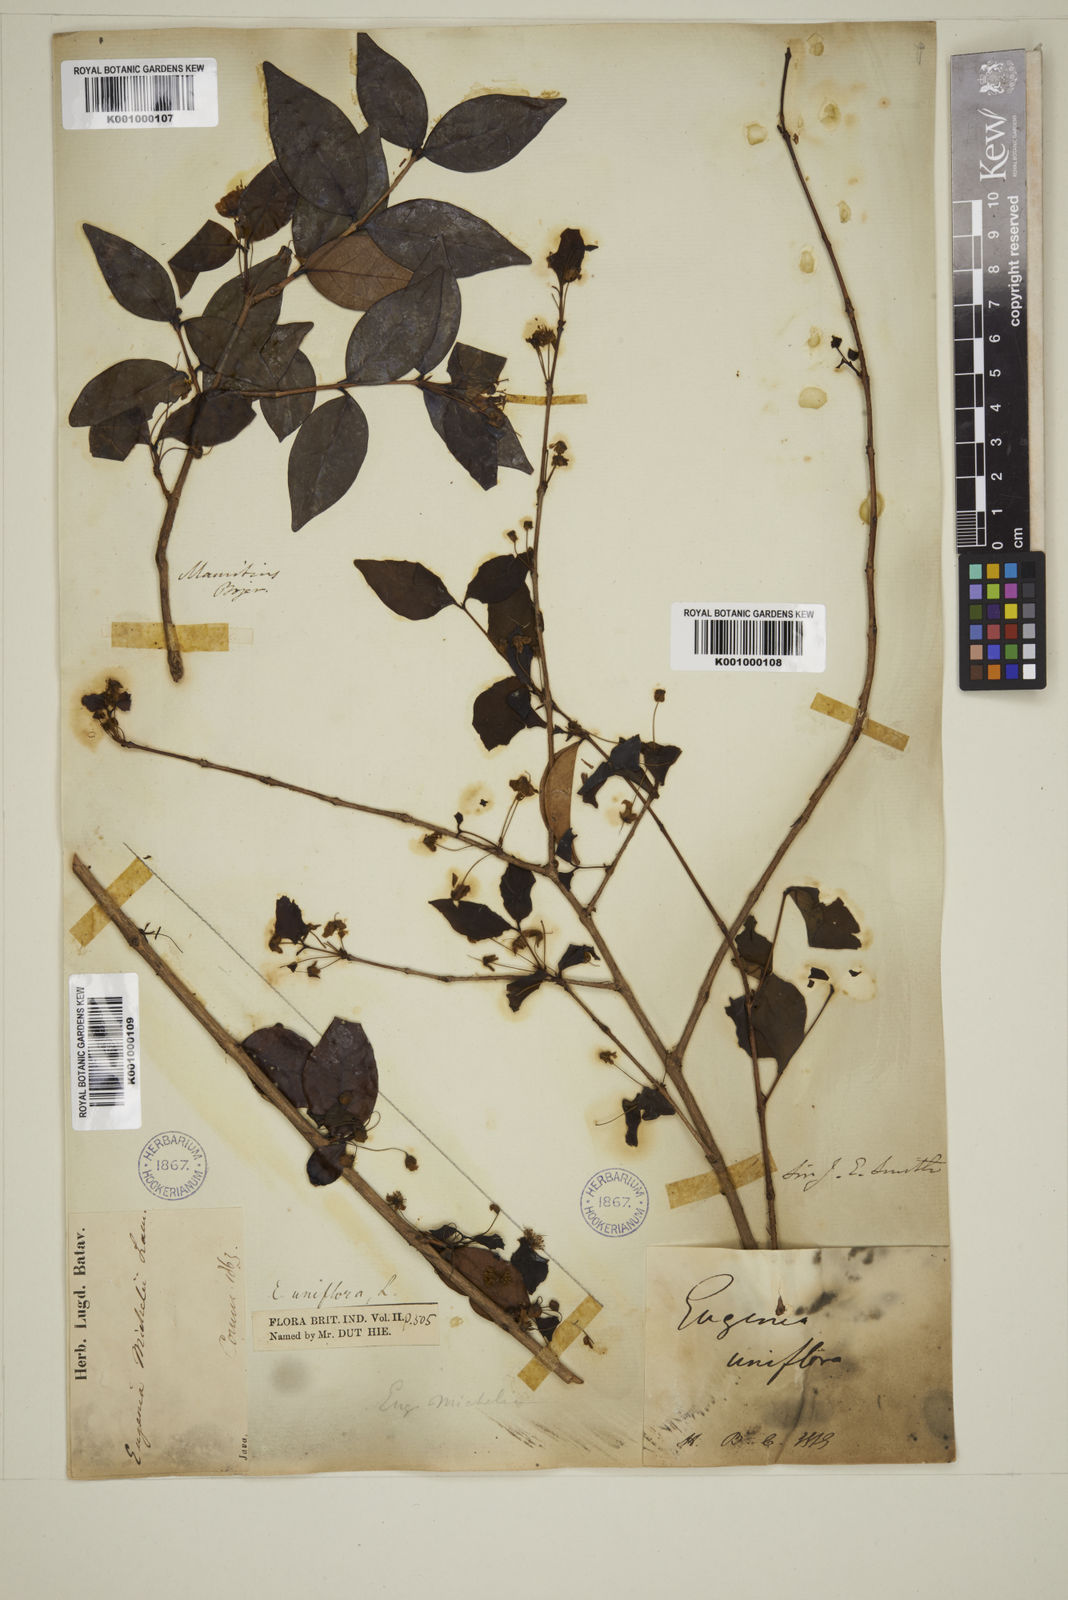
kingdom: Plantae
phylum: Tracheophyta
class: Magnoliopsida
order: Myrtales
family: Myrtaceae
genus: Eugenia
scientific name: Eugenia uniflora
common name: Surinam cherry
